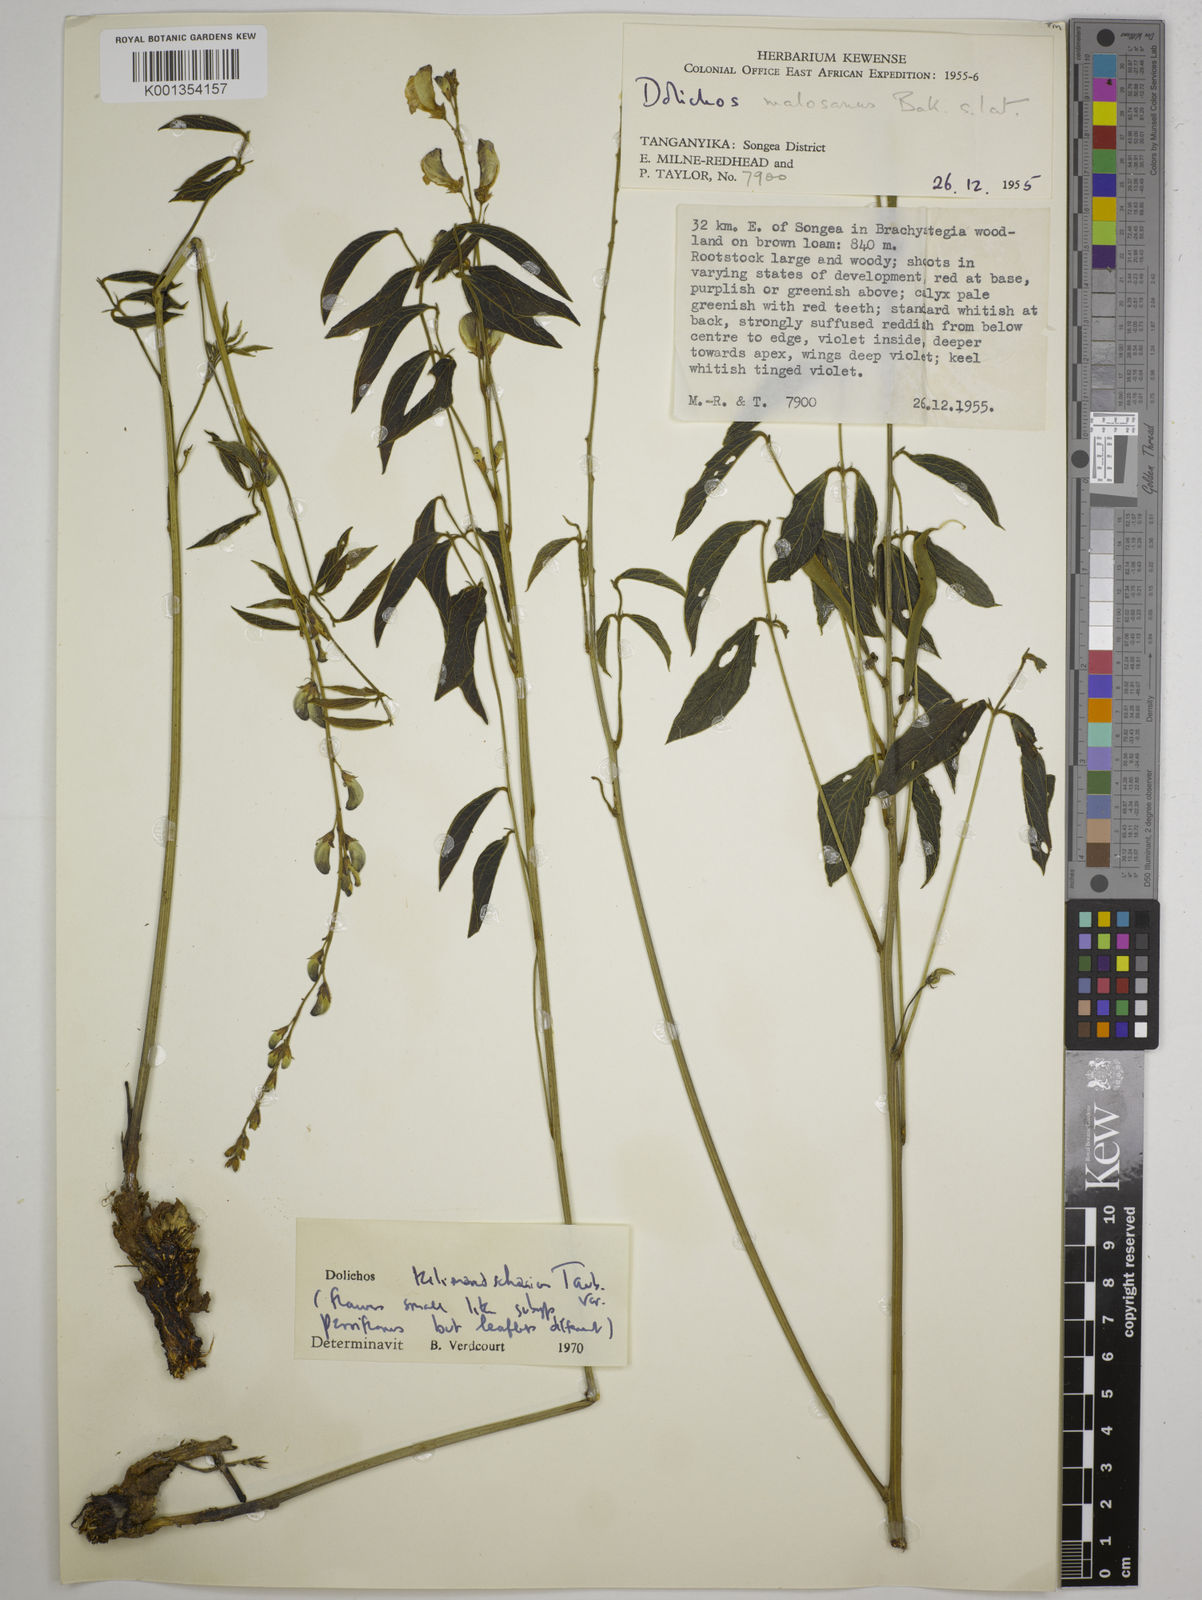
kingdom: Plantae
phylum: Tracheophyta
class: Magnoliopsida
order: Fabales
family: Fabaceae
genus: Dolichos
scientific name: Dolichos
